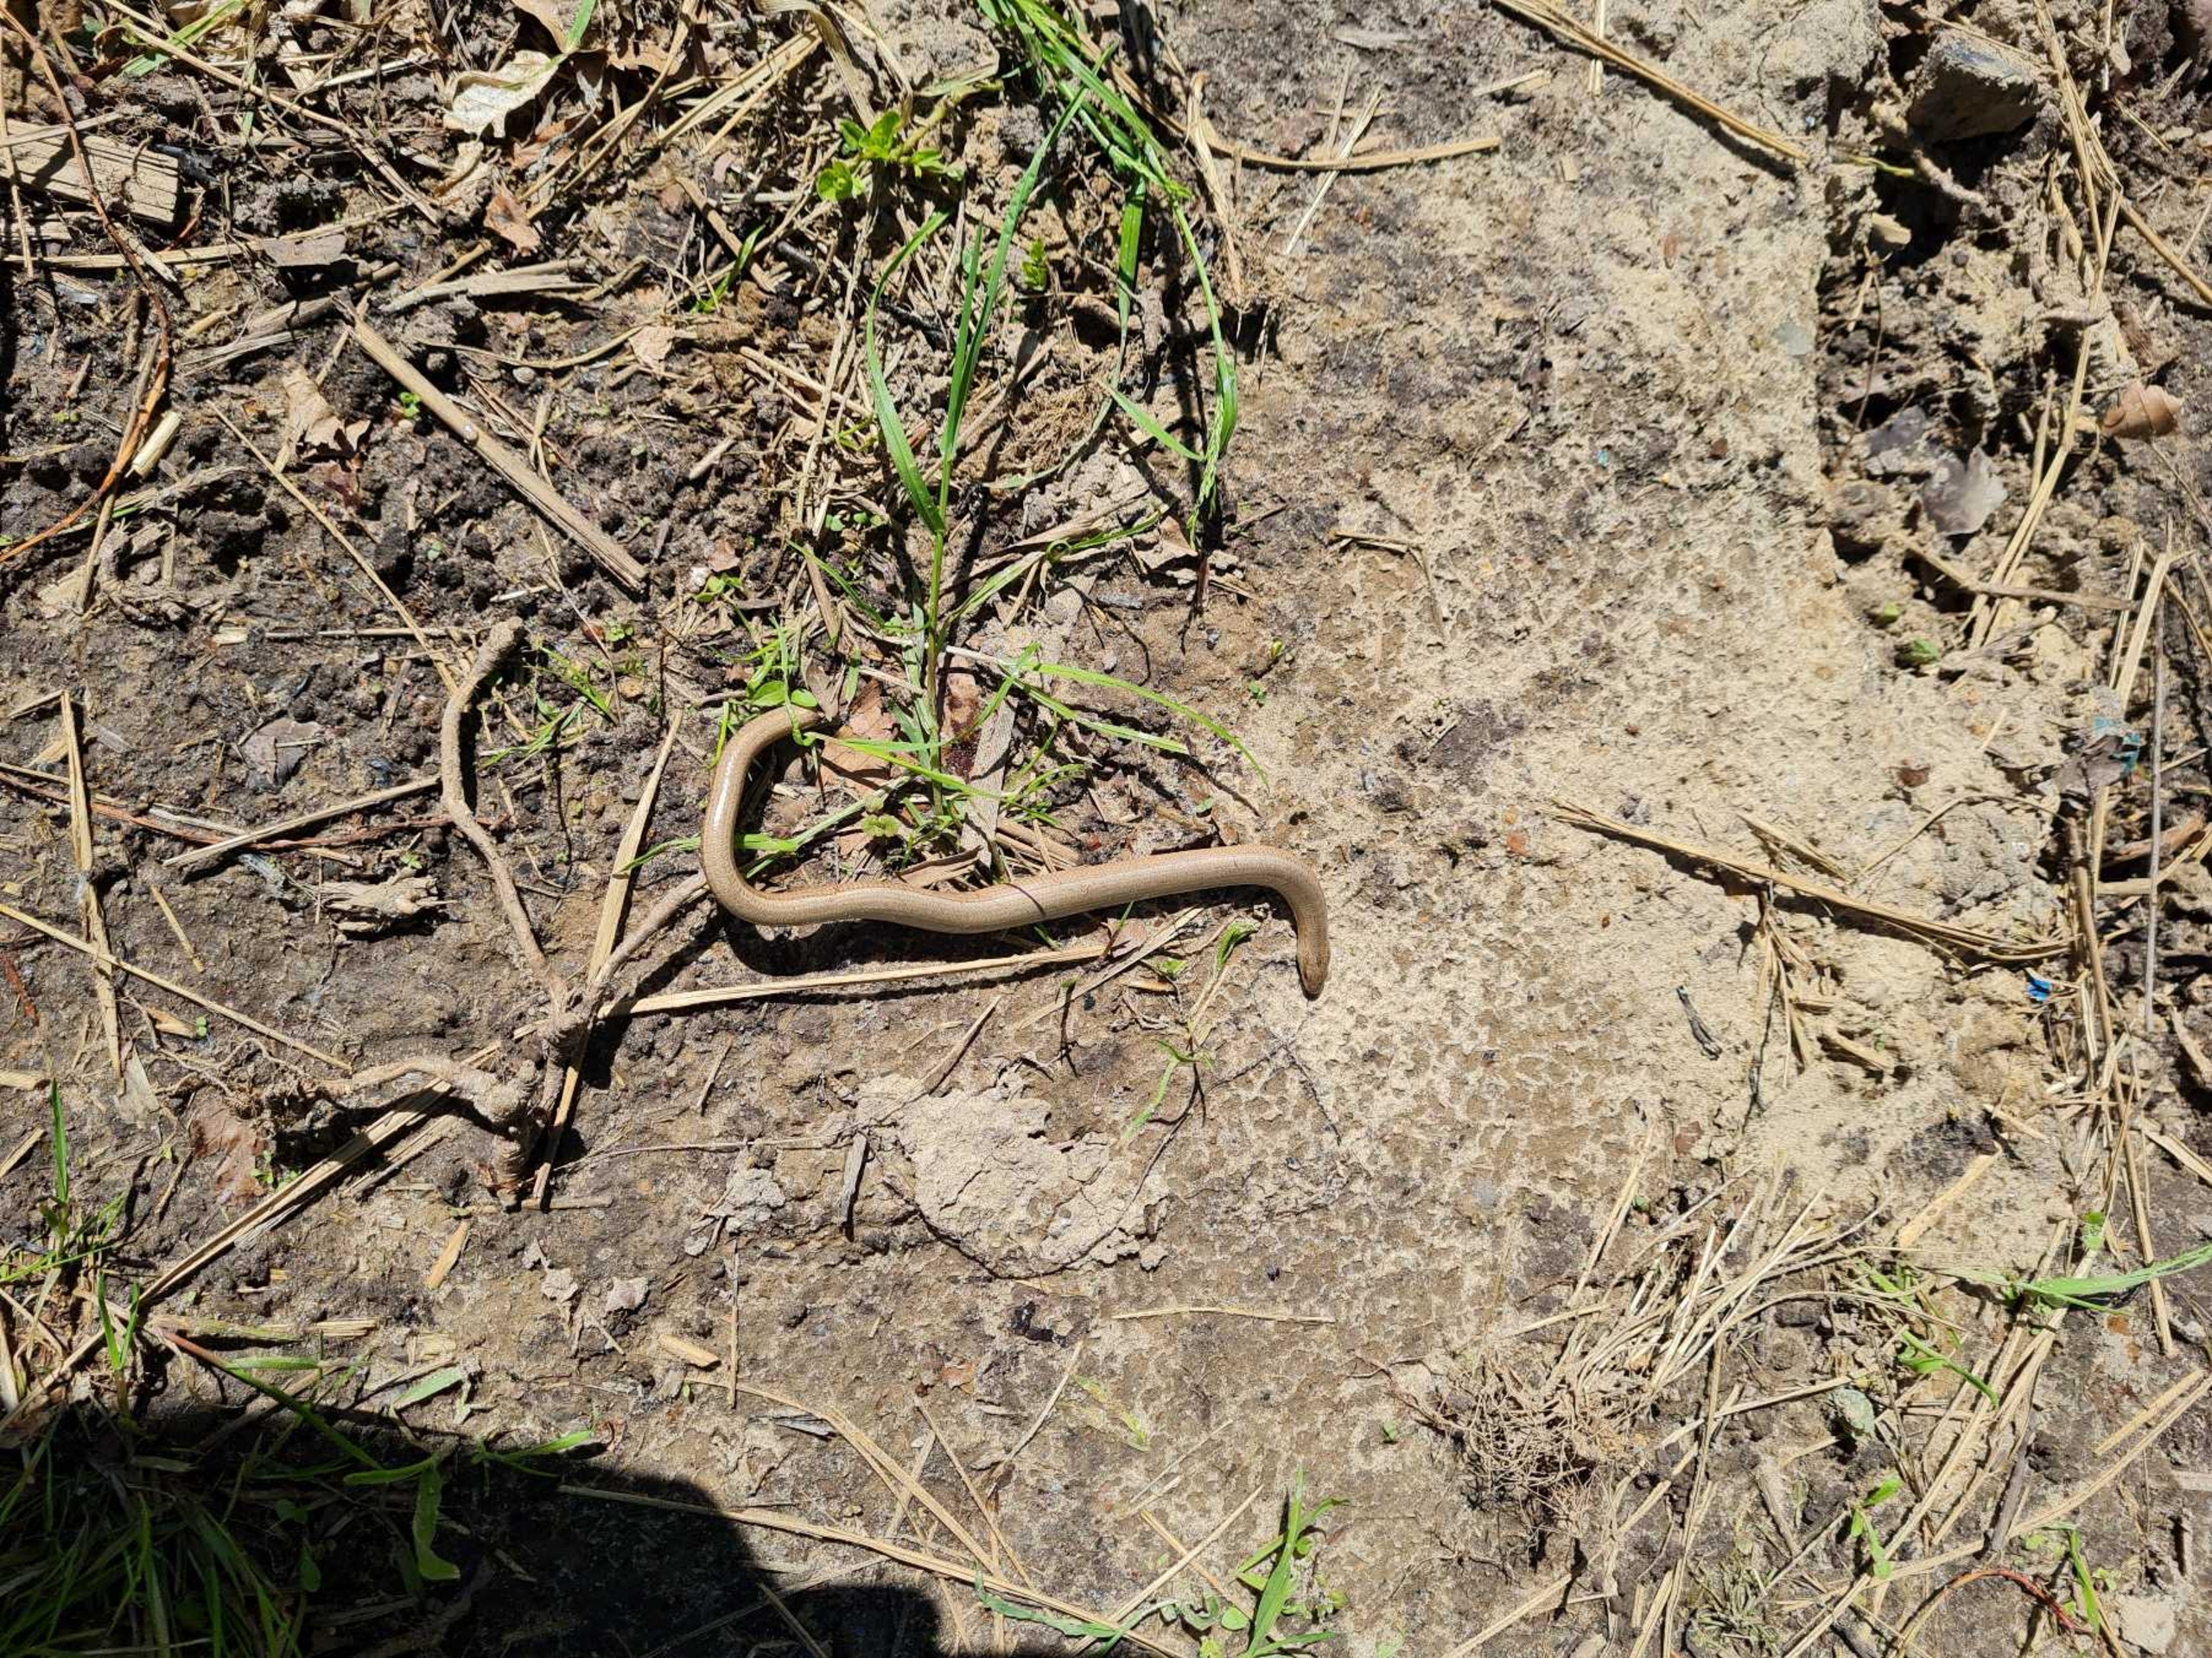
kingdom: Animalia
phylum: Chordata
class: Squamata
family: Anguidae
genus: Anguis
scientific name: Anguis fragilis
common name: Stålorm
